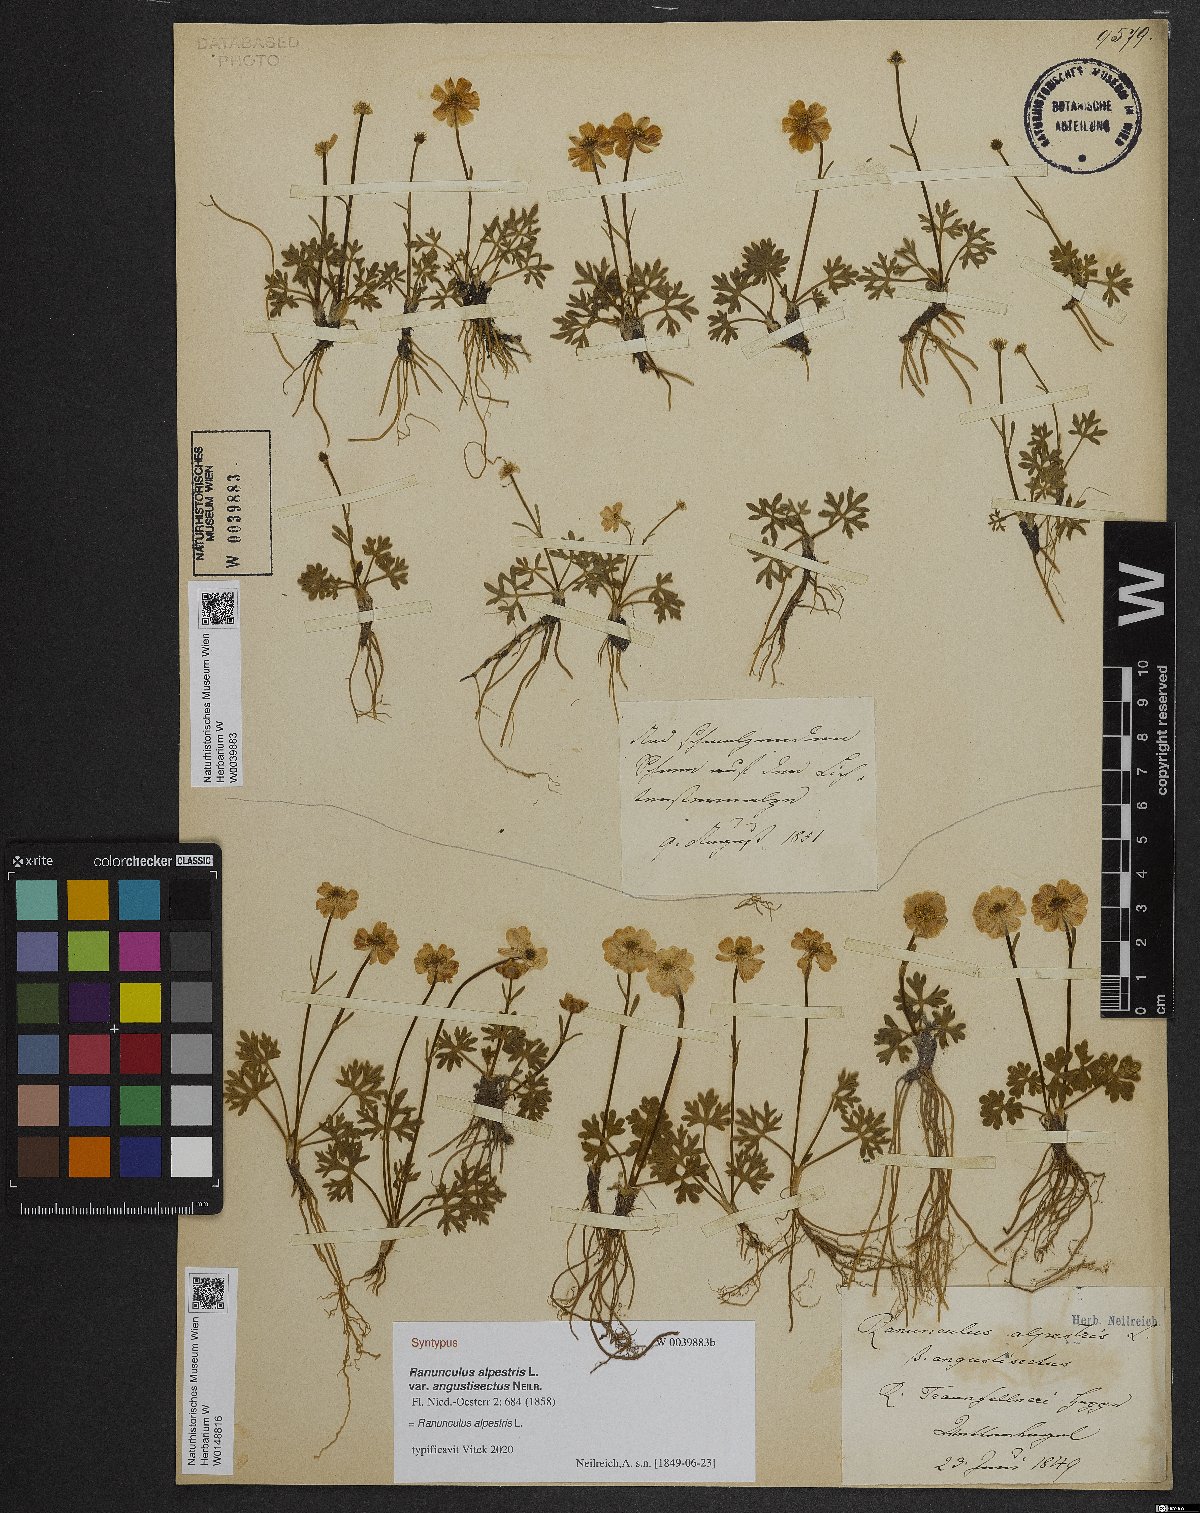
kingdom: Plantae
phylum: Tracheophyta
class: Magnoliopsida
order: Ranunculales
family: Ranunculaceae
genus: Ranunculus
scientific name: Ranunculus alpestris
